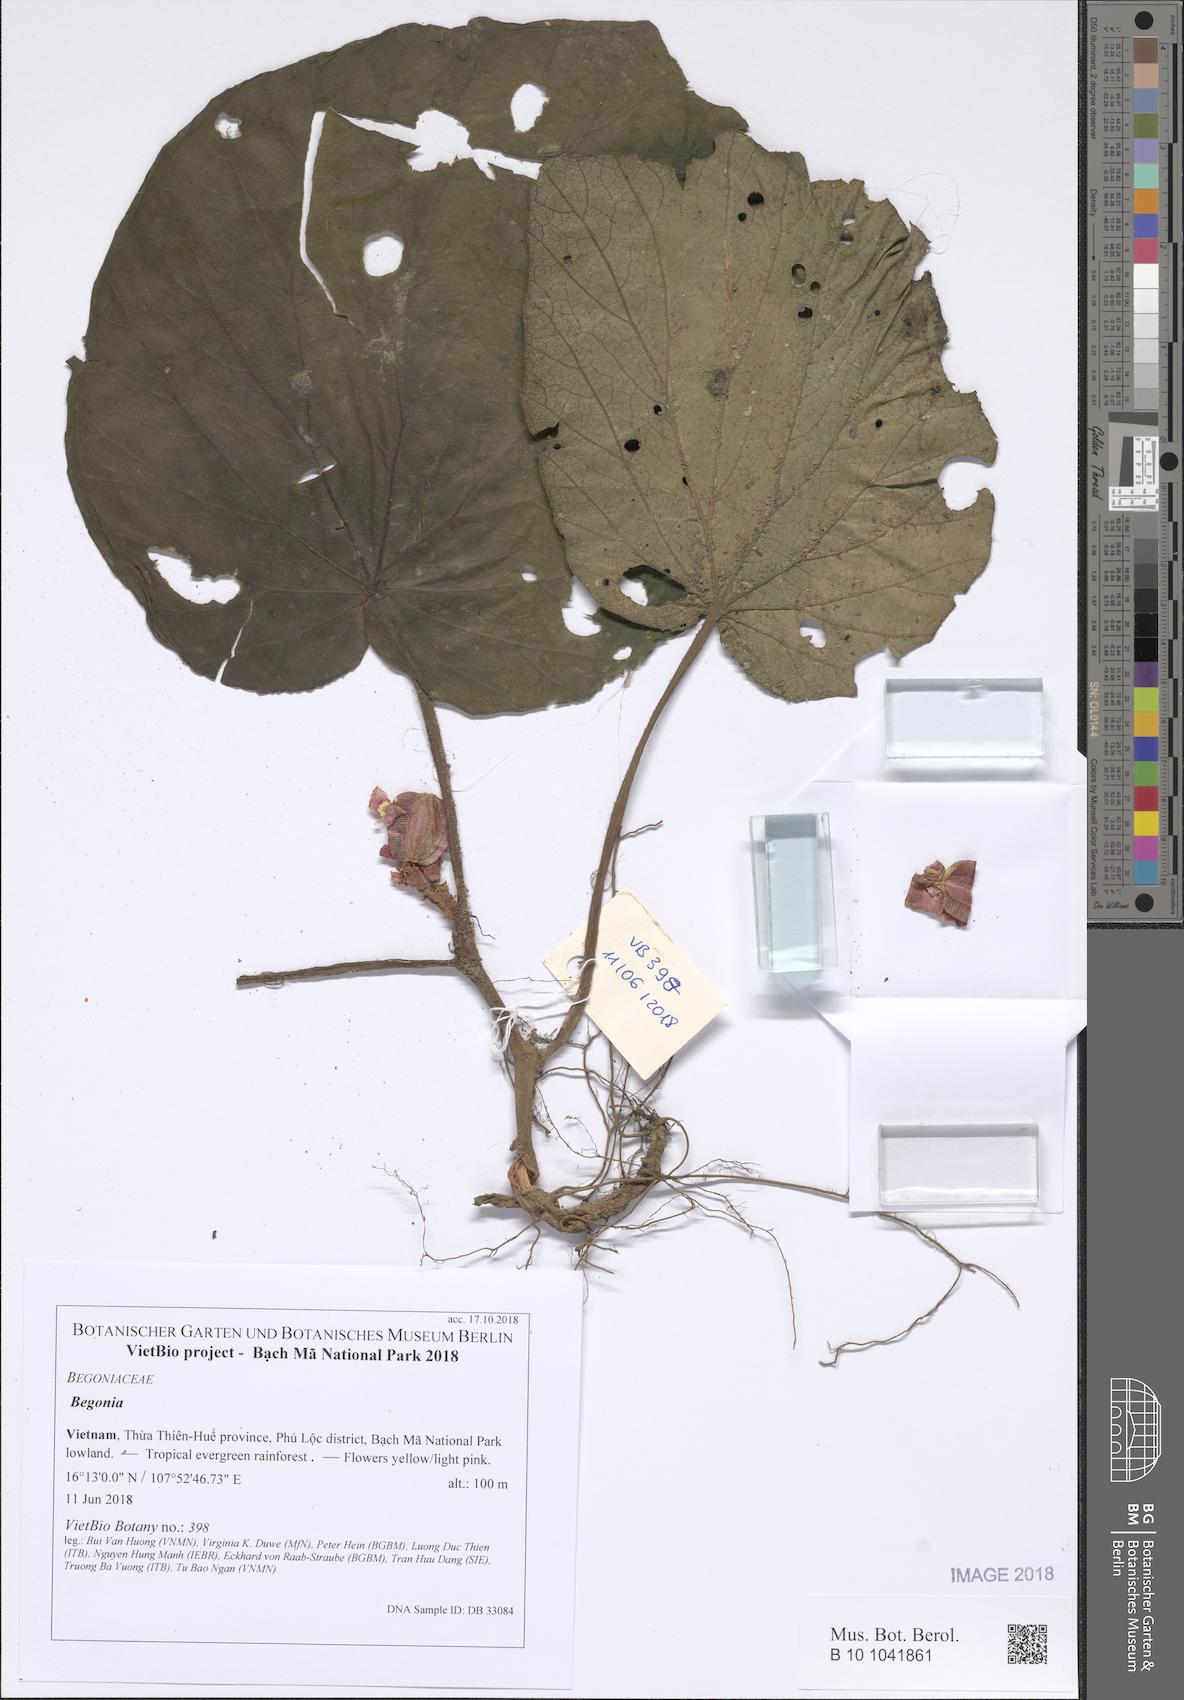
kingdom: Plantae
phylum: Tracheophyta
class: Magnoliopsida
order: Cucurbitales
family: Begoniaceae
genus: Begonia
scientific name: Begonia
